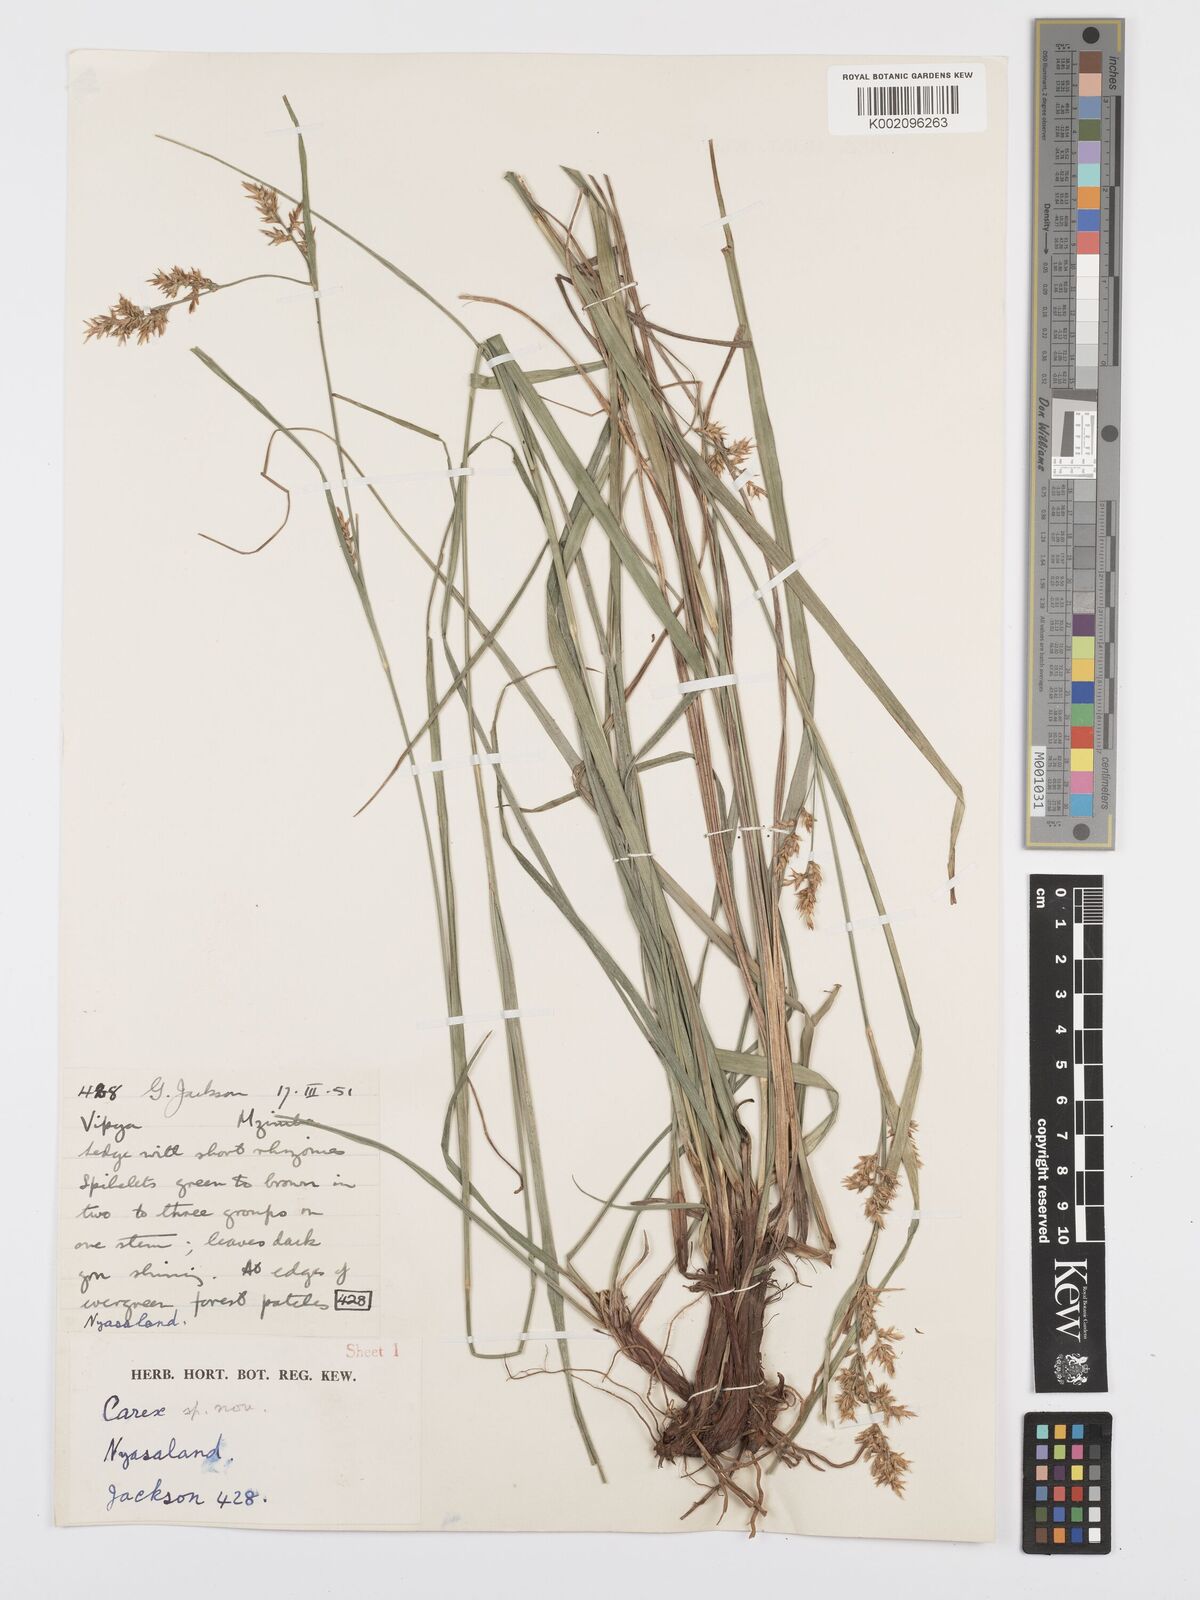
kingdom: Plantae
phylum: Tracheophyta
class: Liliopsida
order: Poales
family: Cyperaceae
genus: Carex
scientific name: Carex spicatopaniculata
